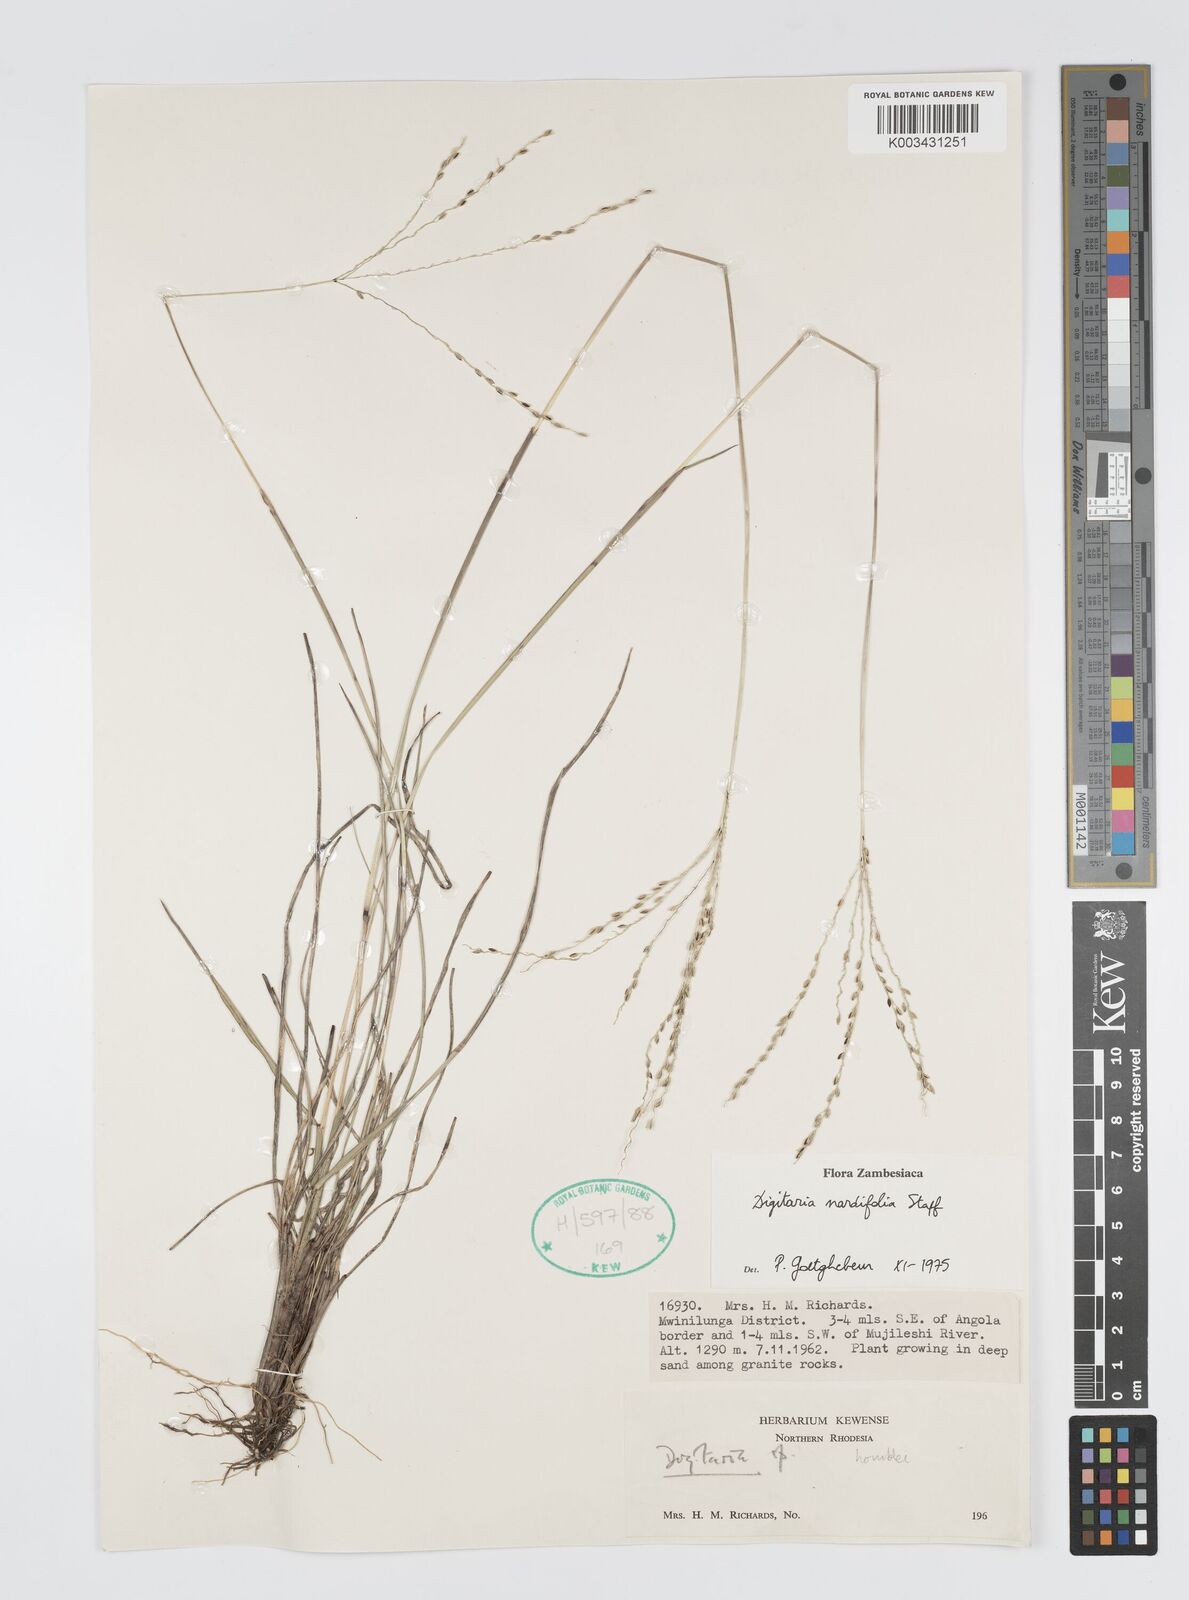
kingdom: Plantae
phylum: Tracheophyta
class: Liliopsida
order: Poales
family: Poaceae
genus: Digitaria
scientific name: Digitaria setifolia
